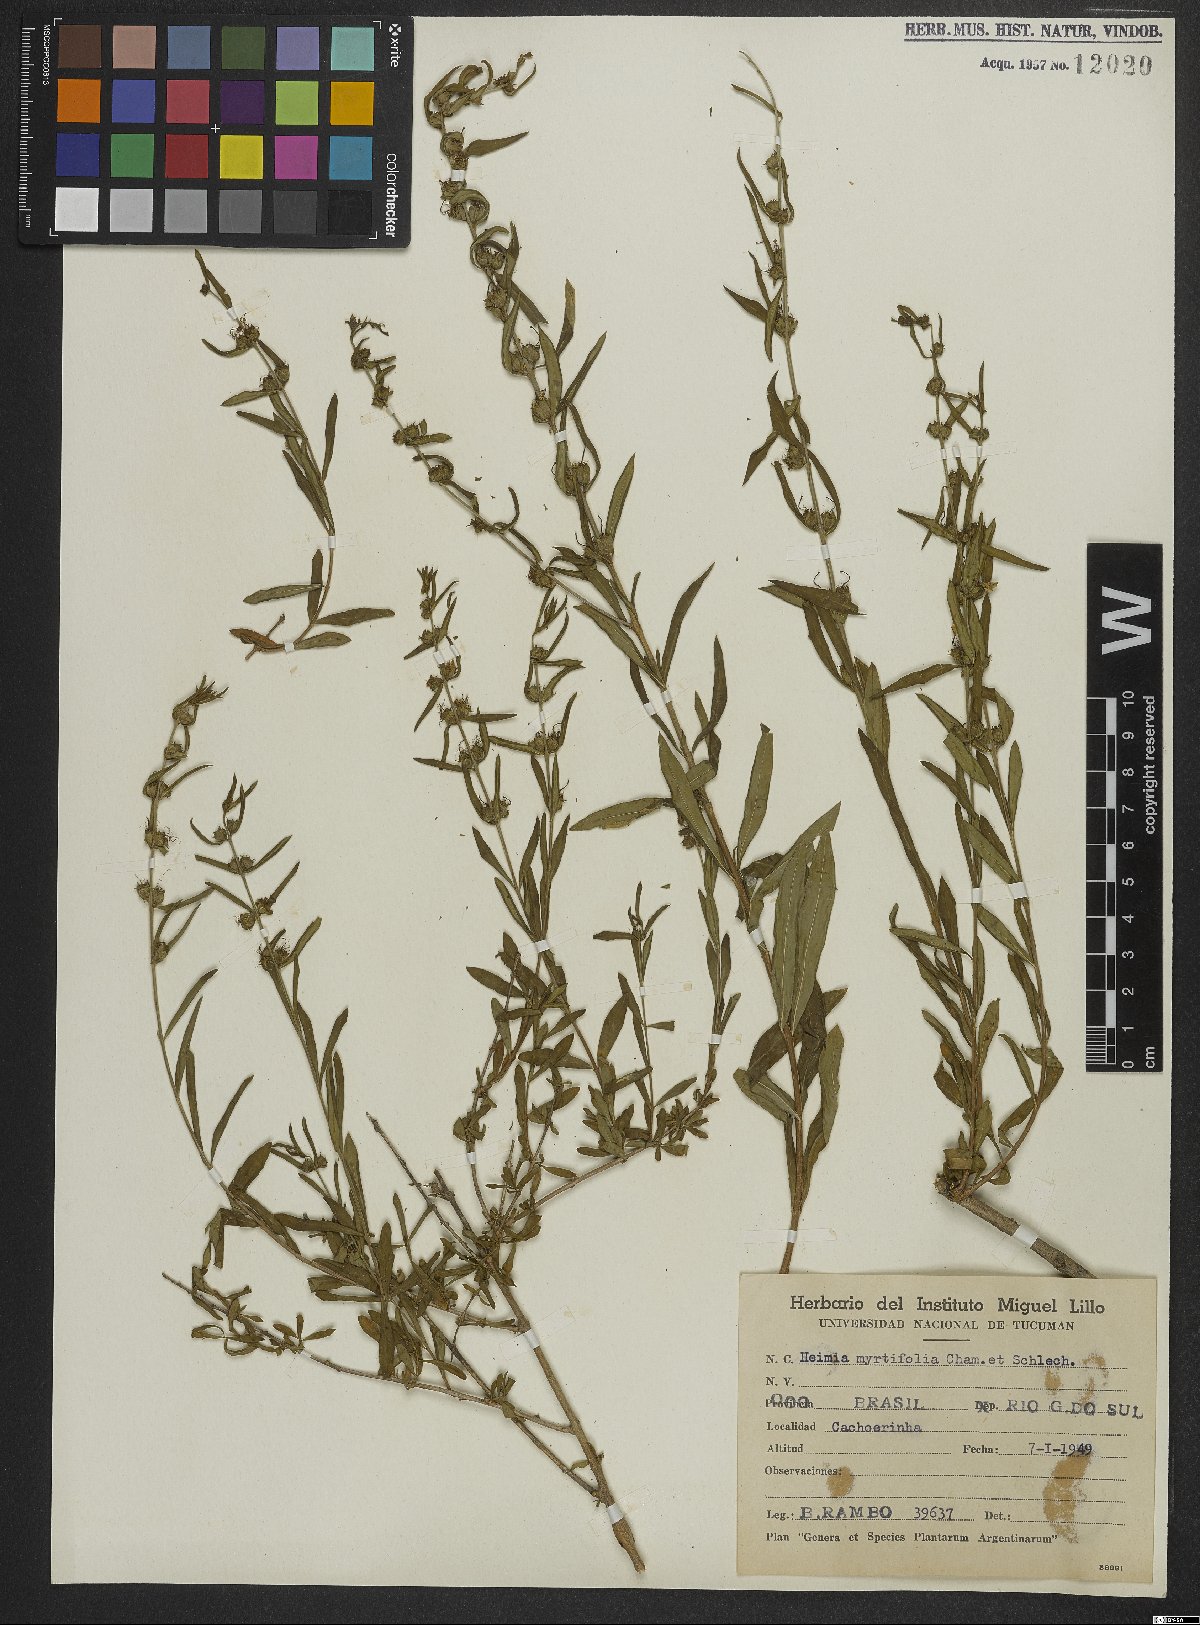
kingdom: Plantae
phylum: Tracheophyta
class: Magnoliopsida
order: Myrtales
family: Lythraceae
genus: Heimia
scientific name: Heimia apetala
